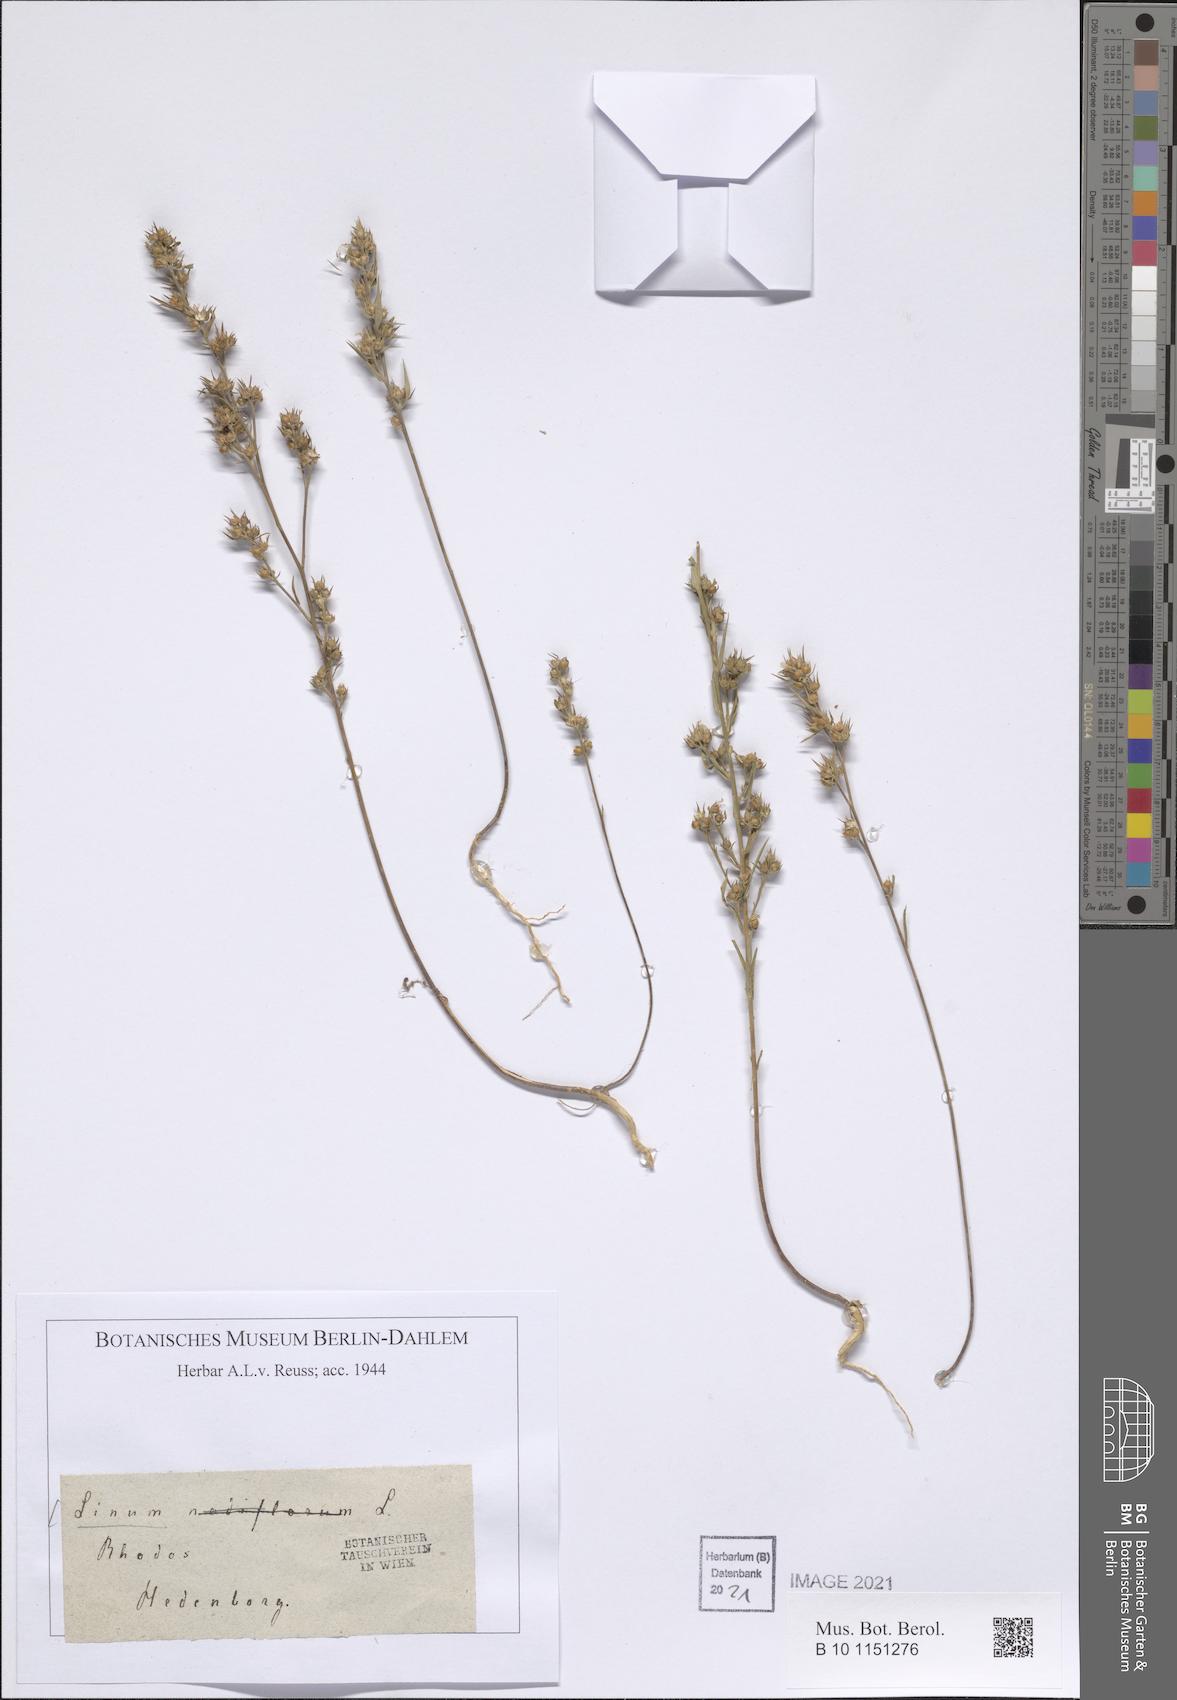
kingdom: Plantae
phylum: Tracheophyta
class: Magnoliopsida
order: Malpighiales
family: Linaceae
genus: Linum
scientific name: Linum strictum
